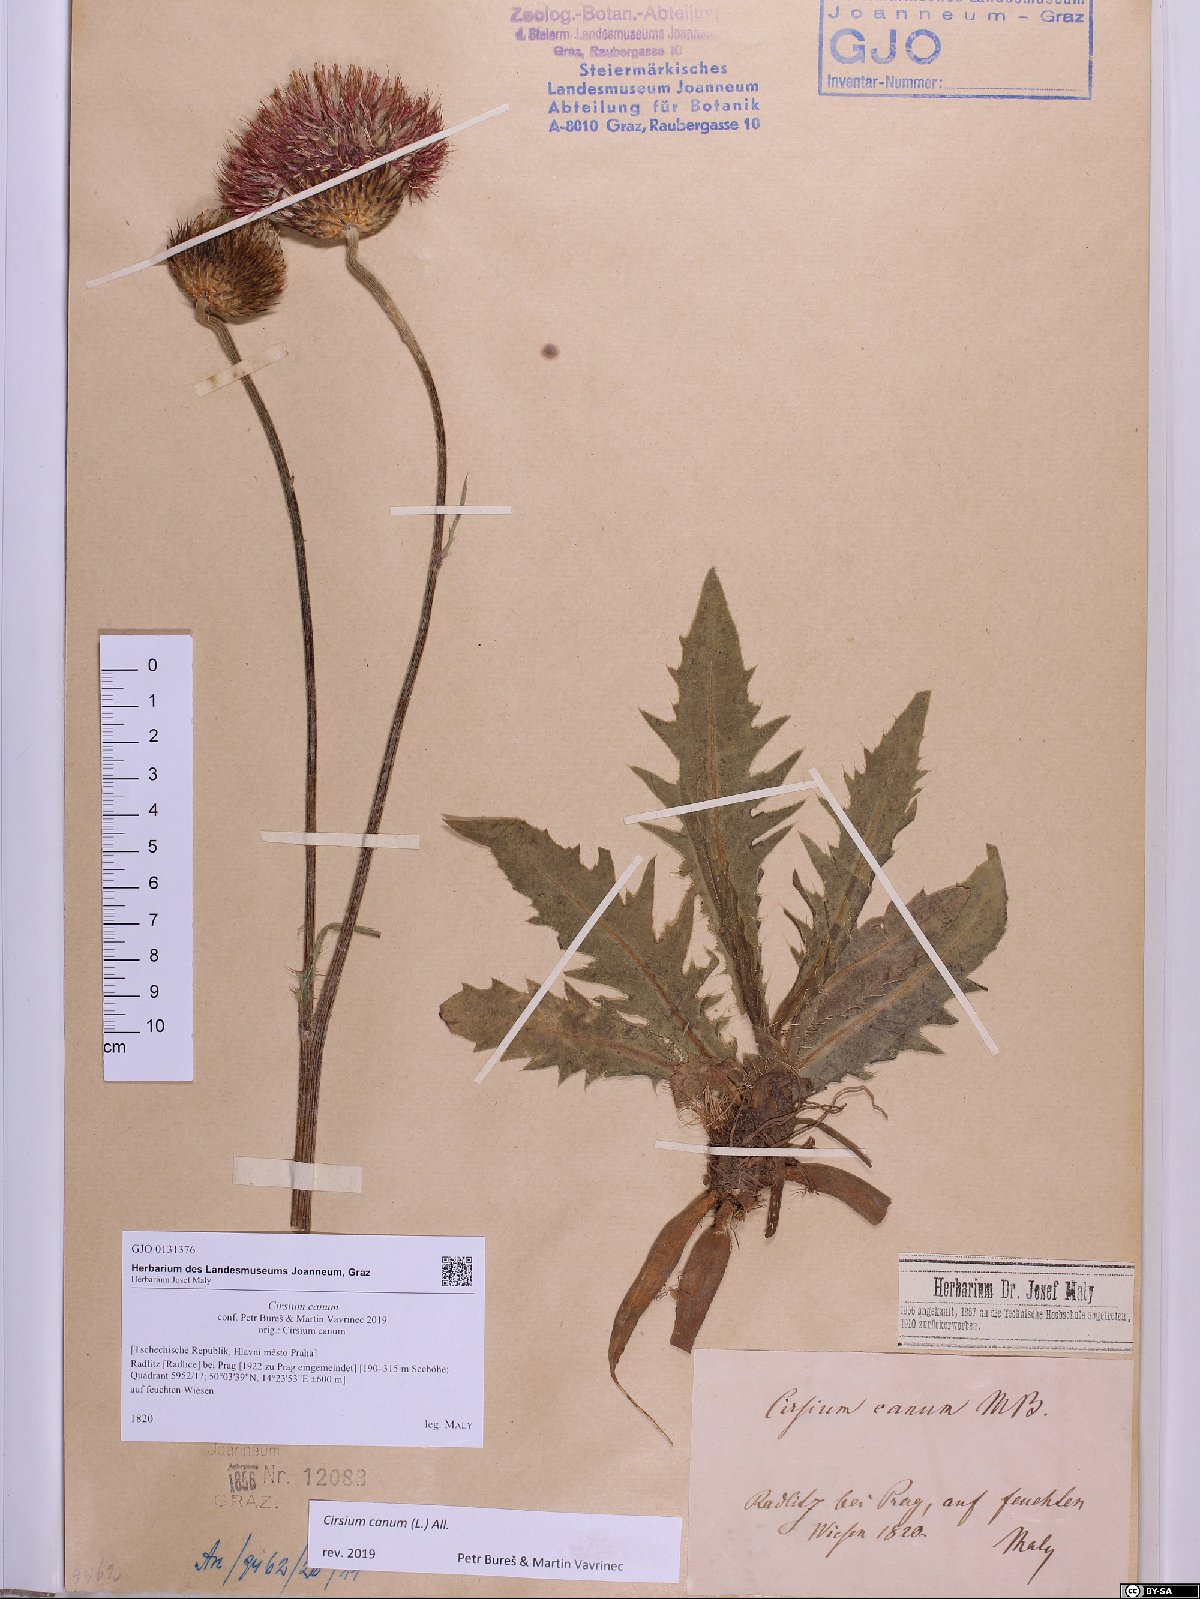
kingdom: Plantae
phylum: Tracheophyta
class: Magnoliopsida
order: Asterales
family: Asteraceae
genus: Cirsium
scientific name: Cirsium canum
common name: Queen anne's thistle
